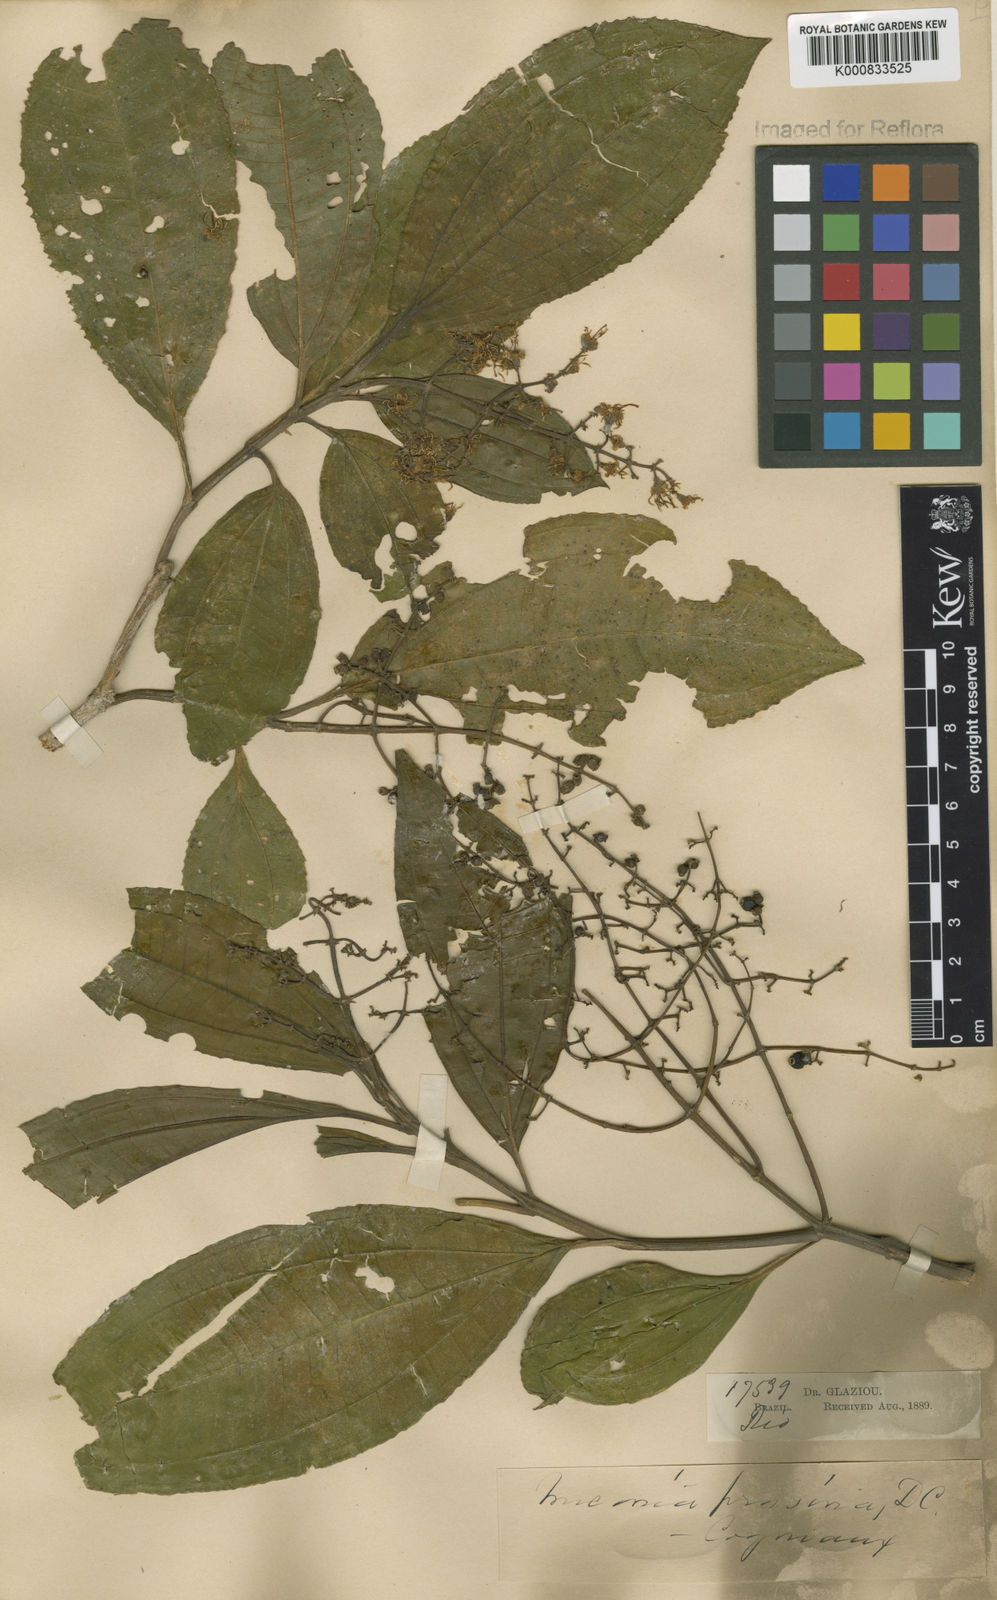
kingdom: Plantae
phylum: Tracheophyta
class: Magnoliopsida
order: Myrtales
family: Melastomataceae
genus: Miconia
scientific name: Miconia prasina
